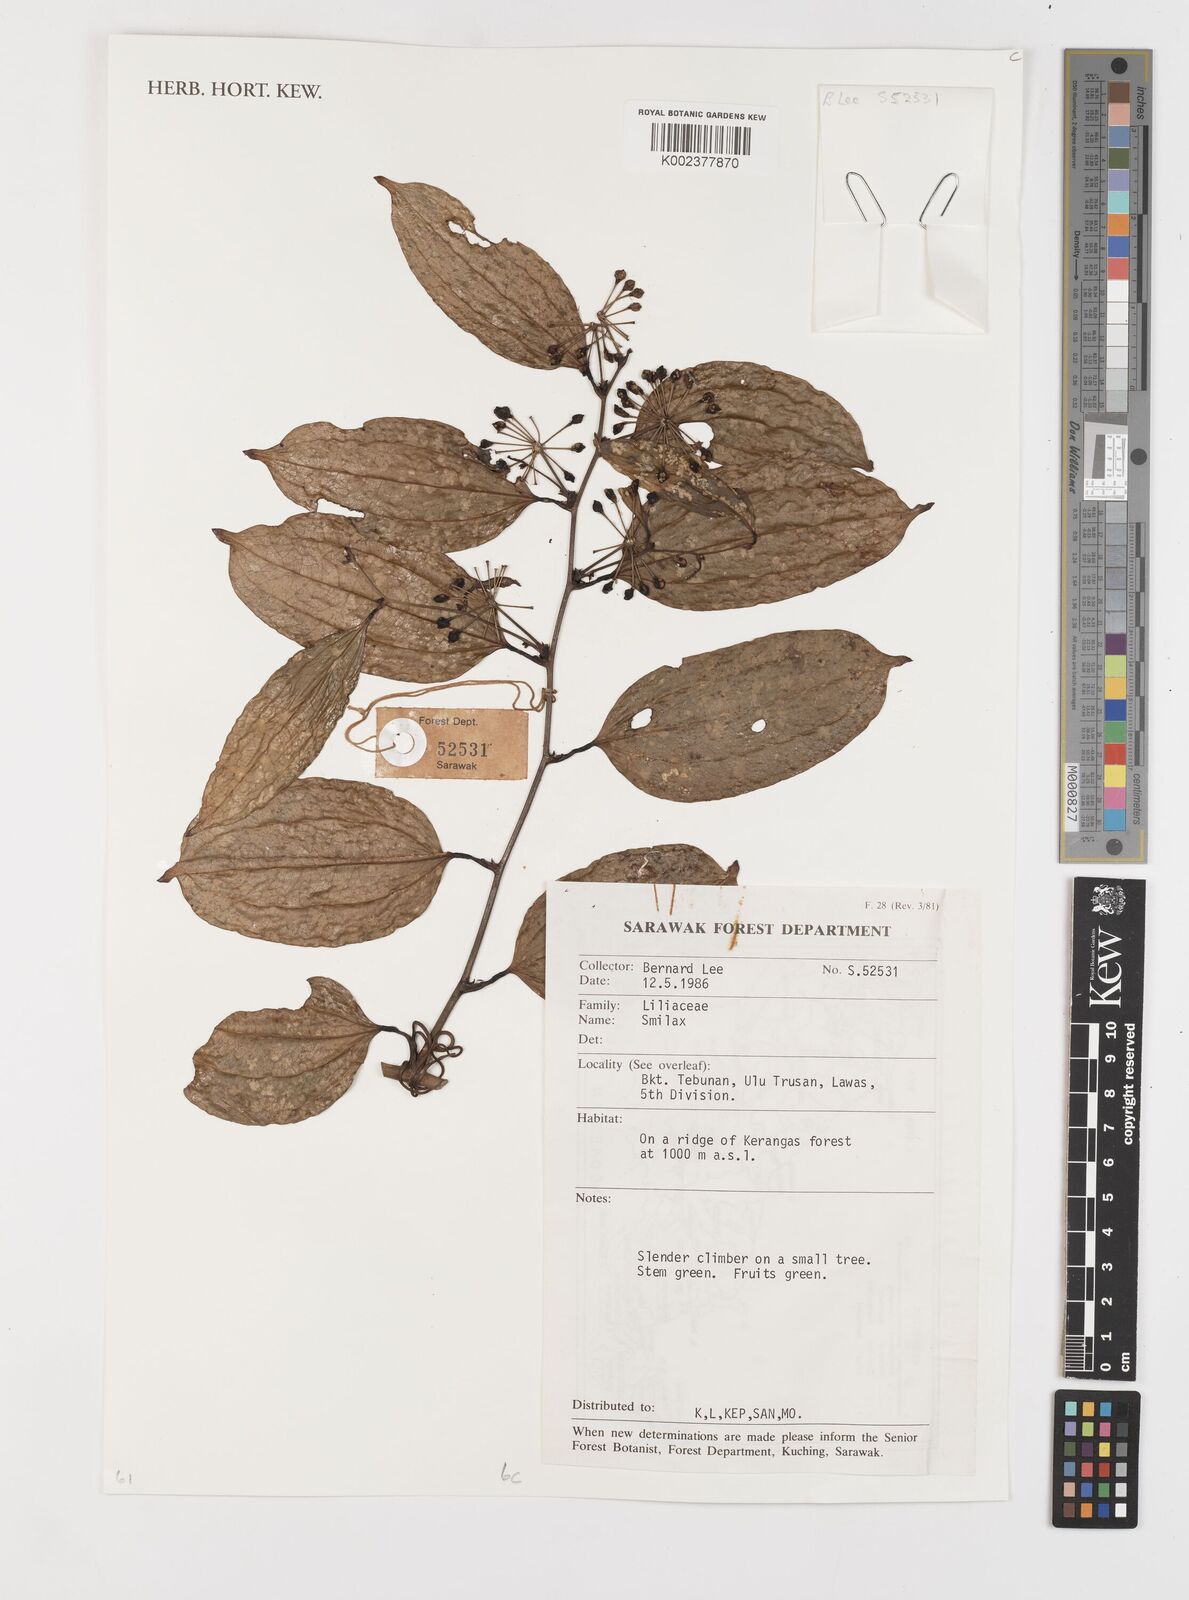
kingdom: Plantae
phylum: Tracheophyta
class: Liliopsida
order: Liliales
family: Smilacaceae
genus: Smilax
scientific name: Smilax
